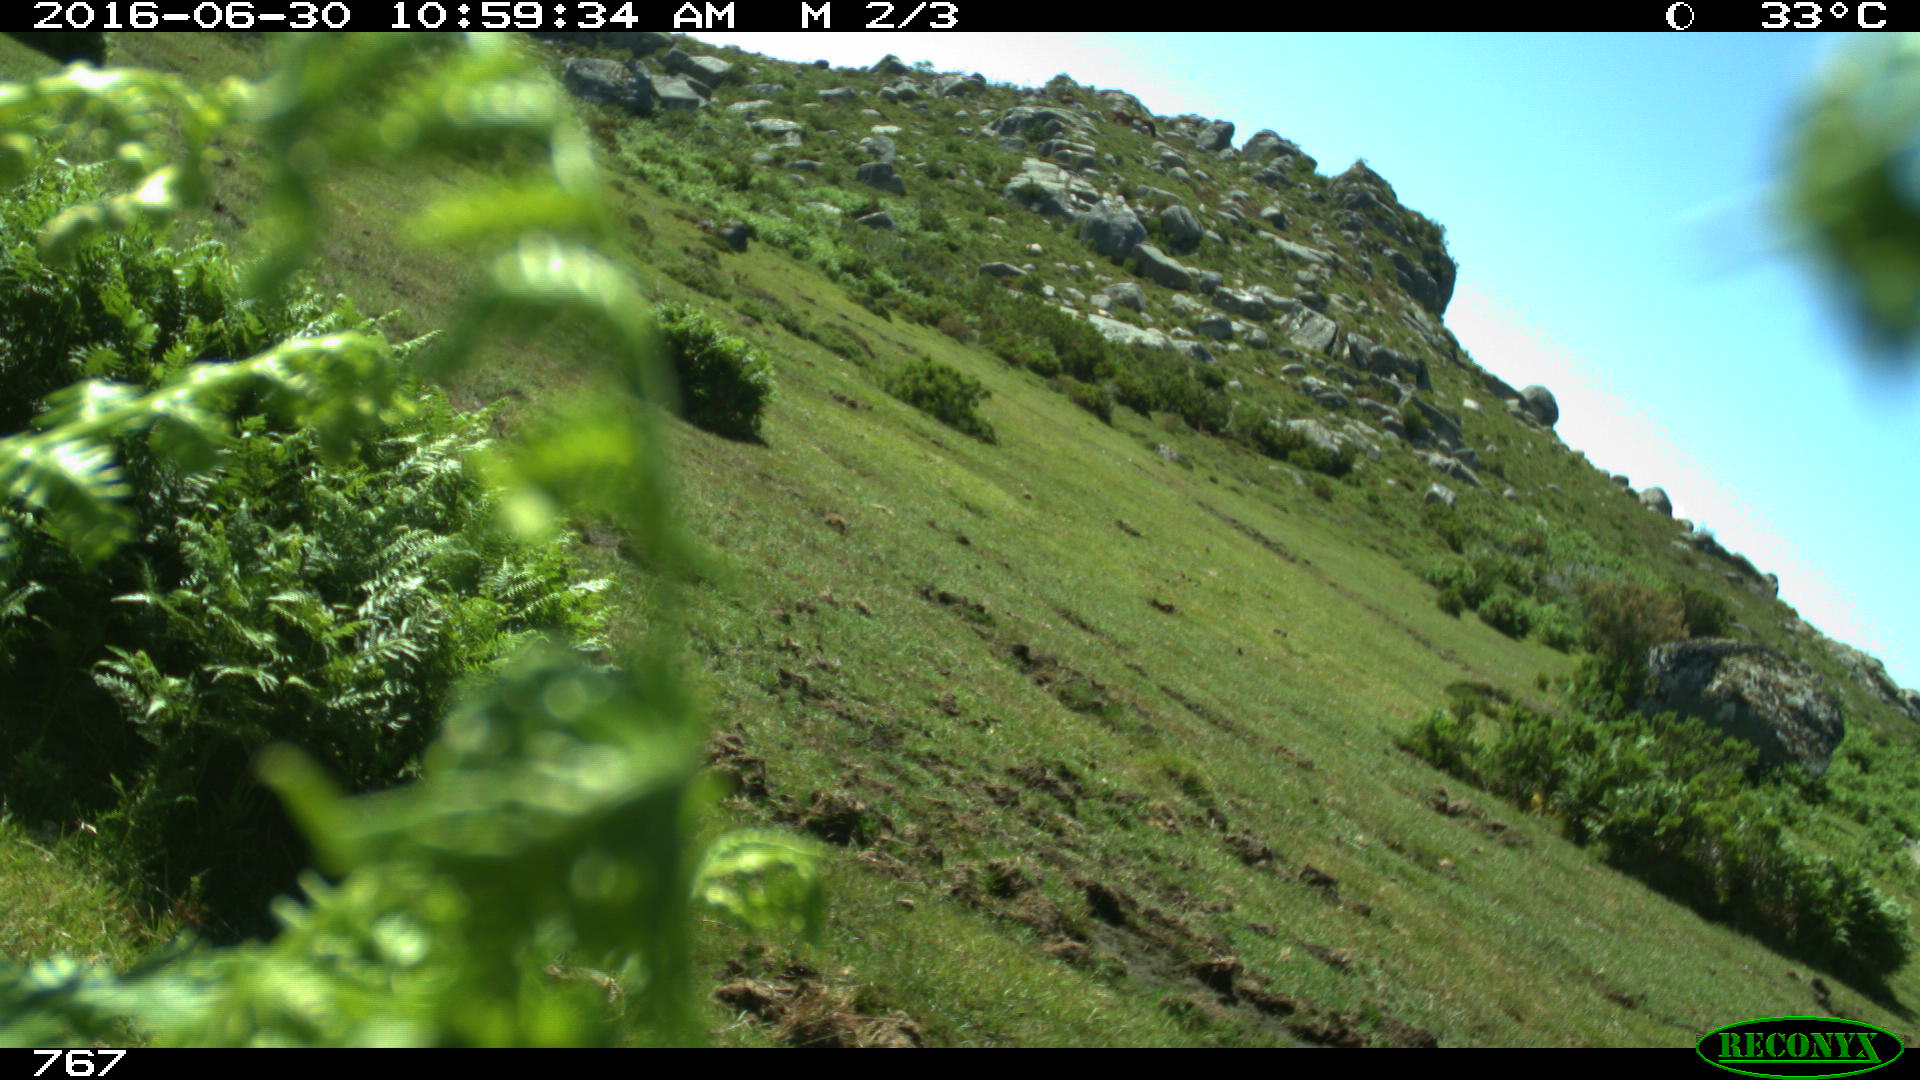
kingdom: Animalia
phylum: Chordata
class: Mammalia
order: Perissodactyla
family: Equidae
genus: Equus
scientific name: Equus caballus
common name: Horse
